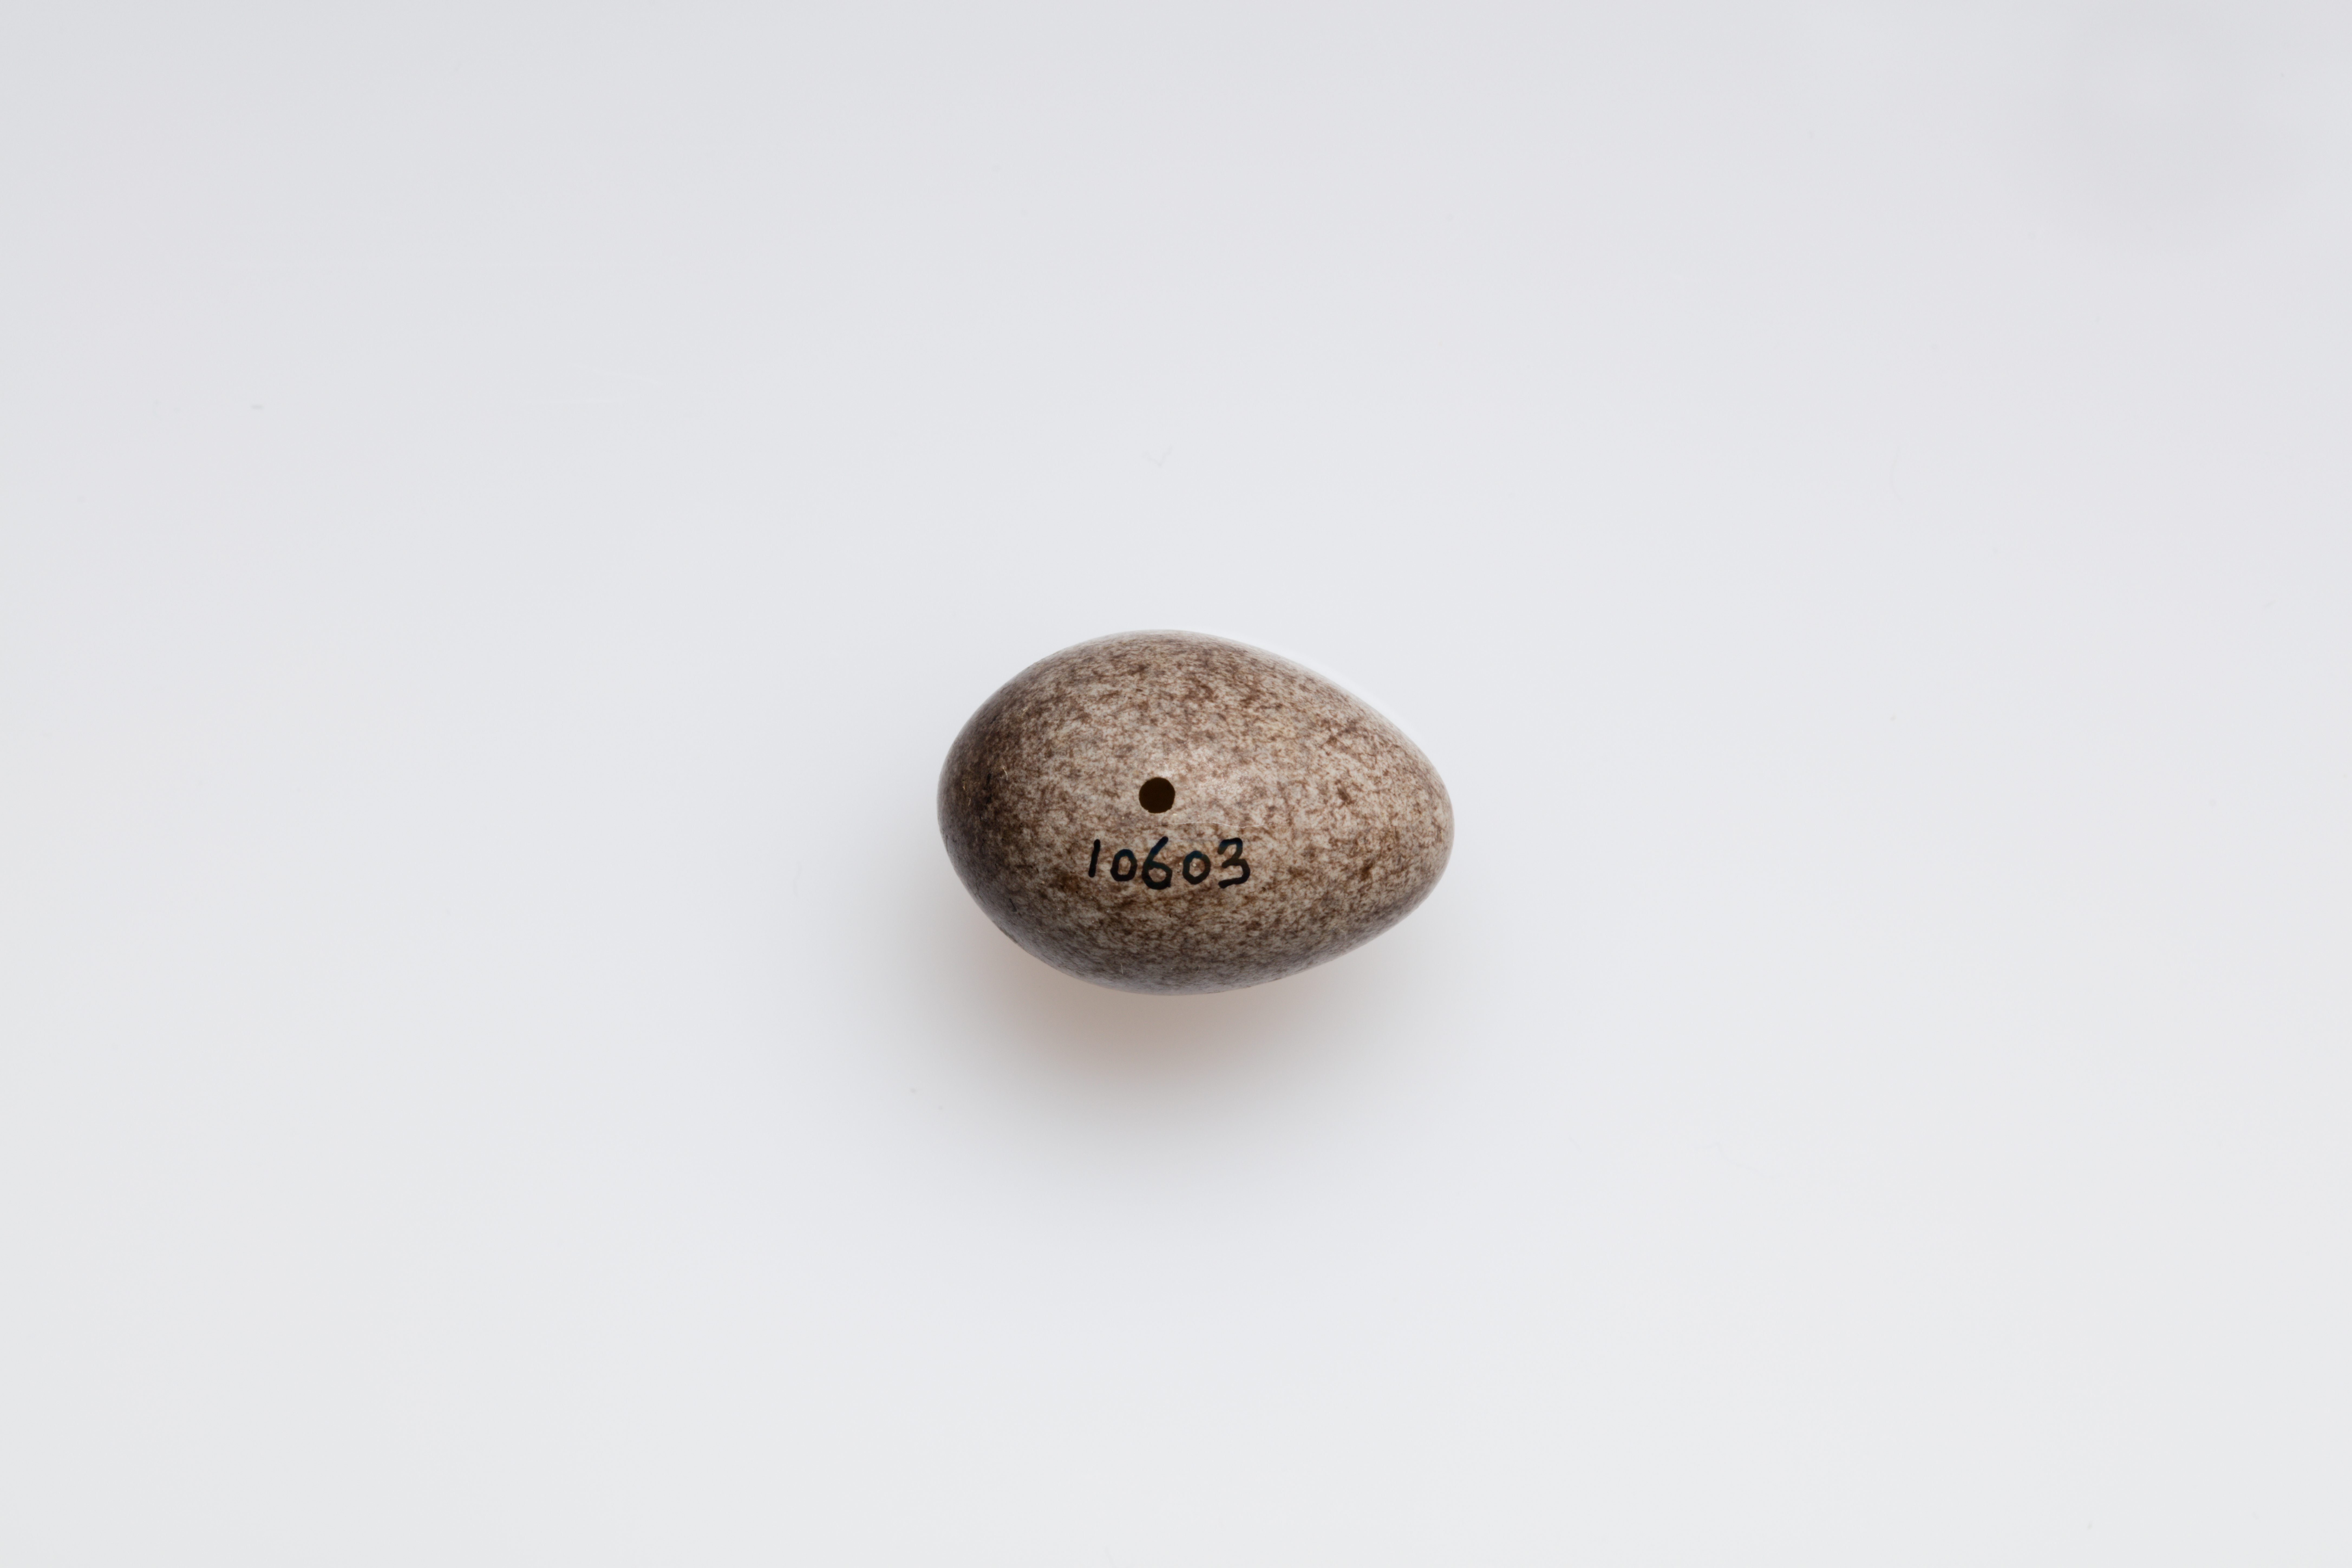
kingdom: Animalia
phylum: Chordata
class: Aves
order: Passeriformes
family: Motacillidae
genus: Anthus
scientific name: Anthus pratensis
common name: Meadow pipit
